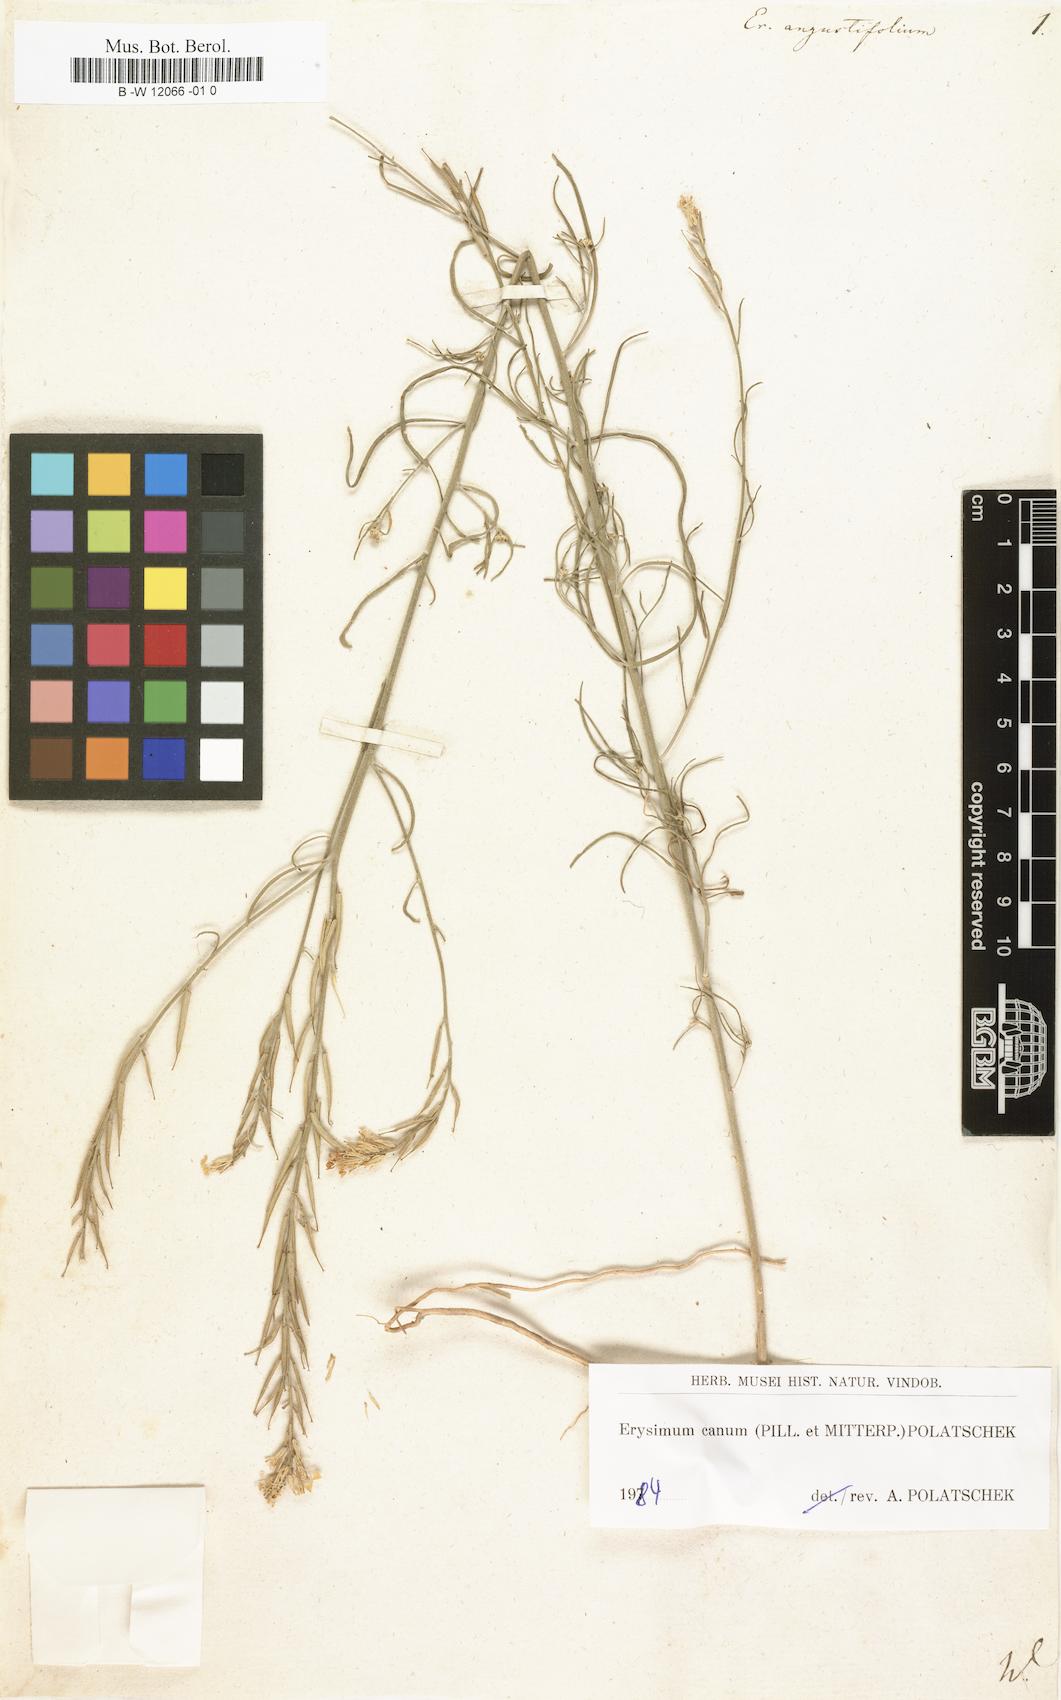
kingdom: Plantae
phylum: Tracheophyta
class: Magnoliopsida
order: Brassicales
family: Brassicaceae
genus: Erysimum
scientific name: Erysimum
